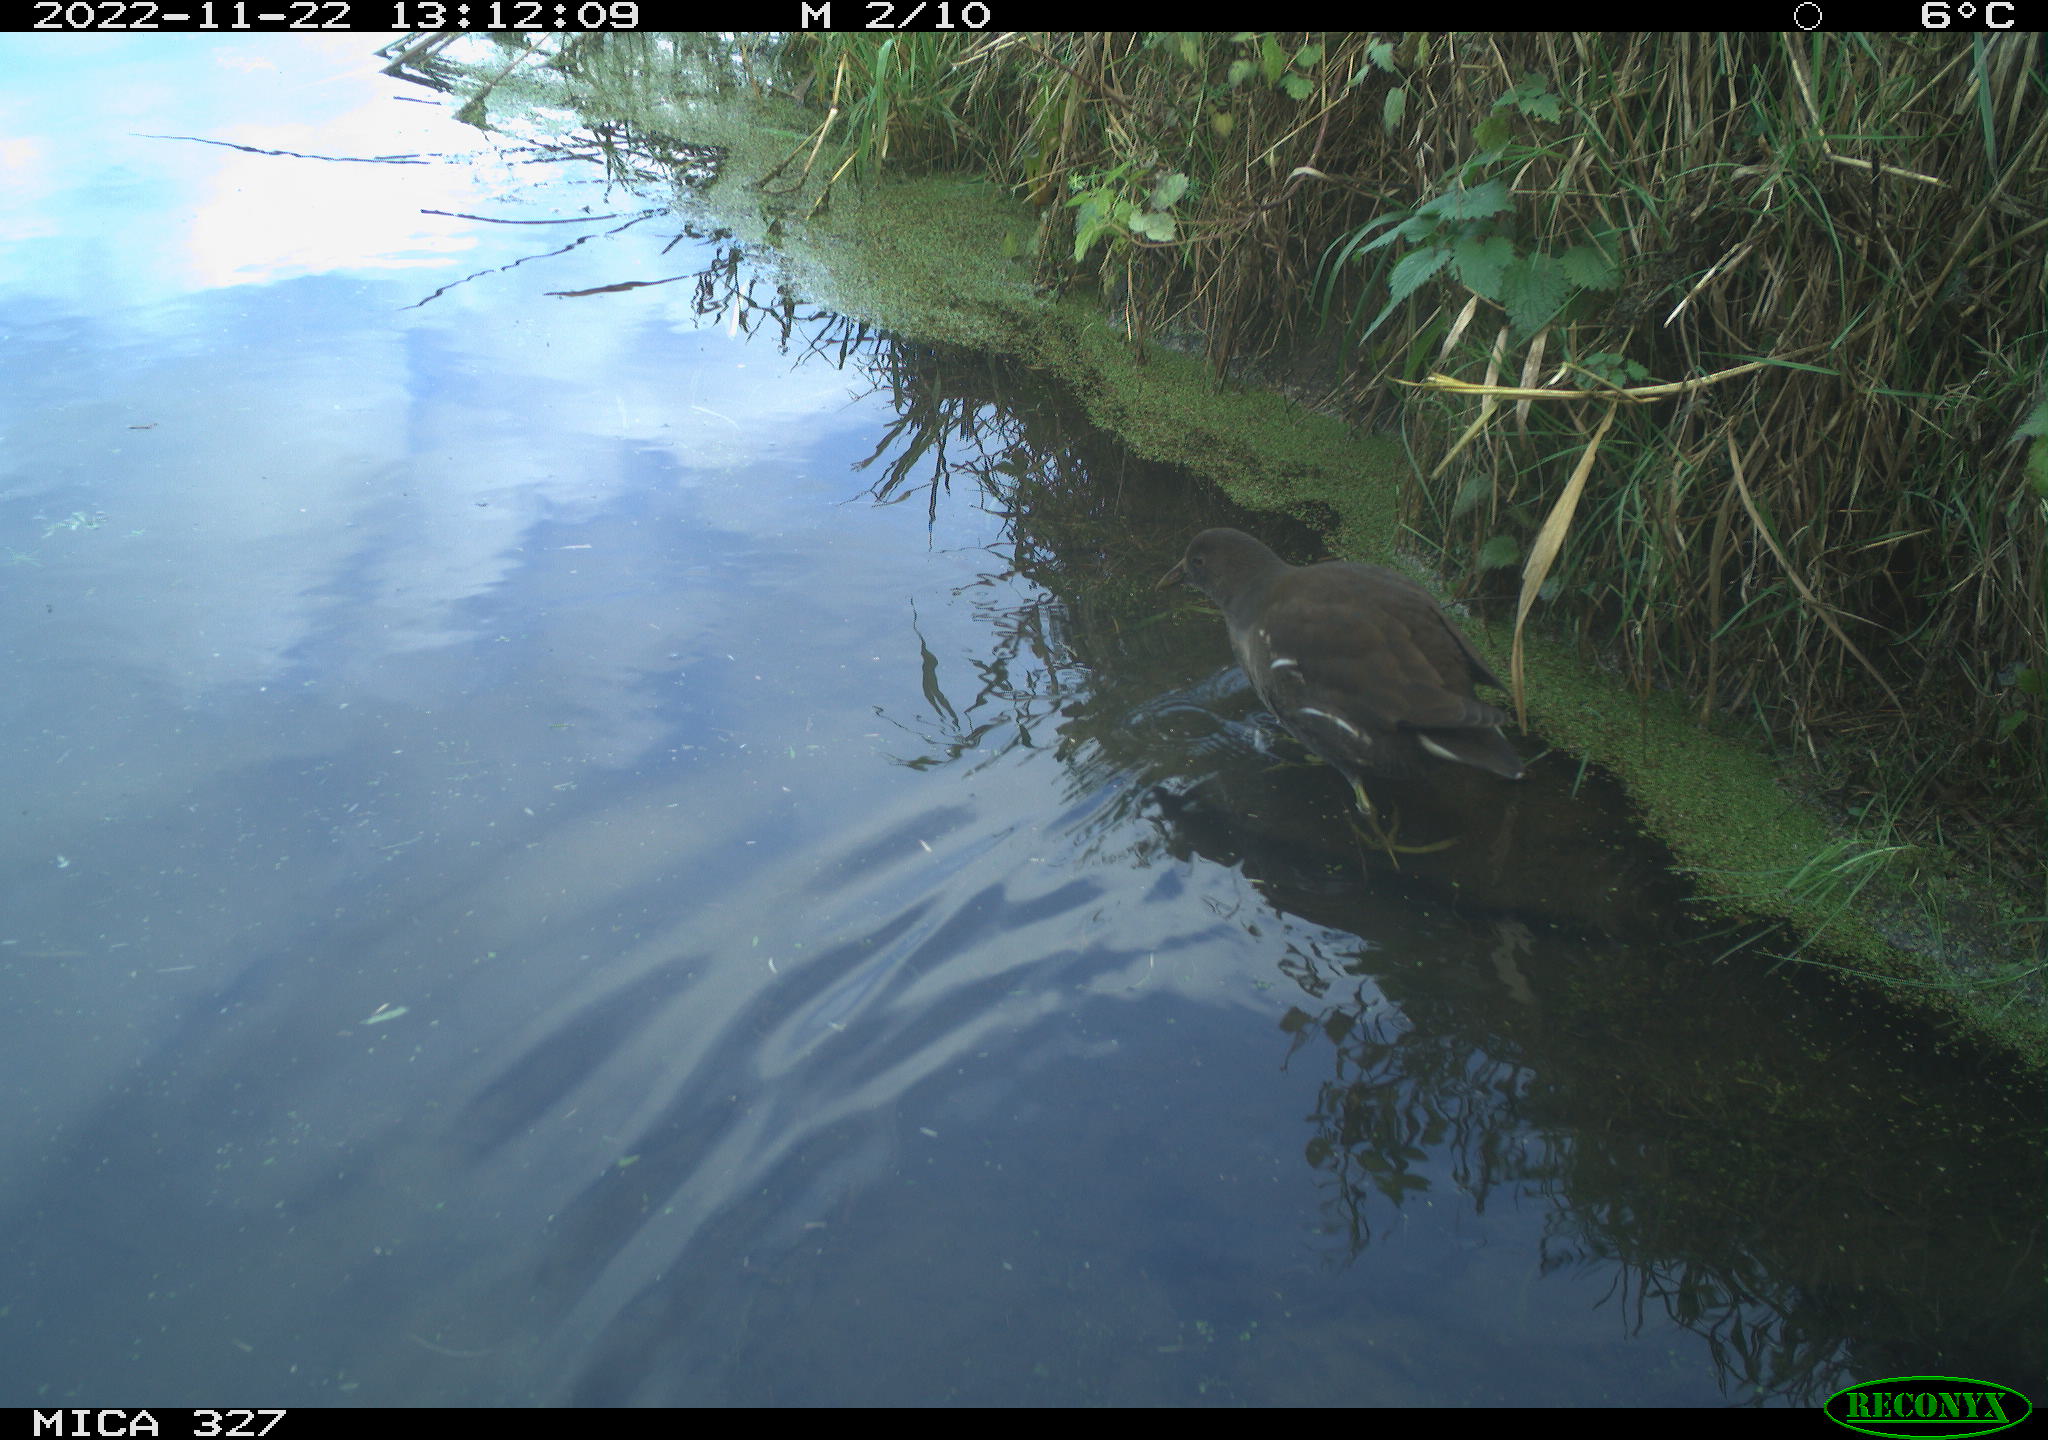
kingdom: Animalia
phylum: Chordata
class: Aves
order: Gruiformes
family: Rallidae
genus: Gallinula
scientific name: Gallinula chloropus
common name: Common moorhen
